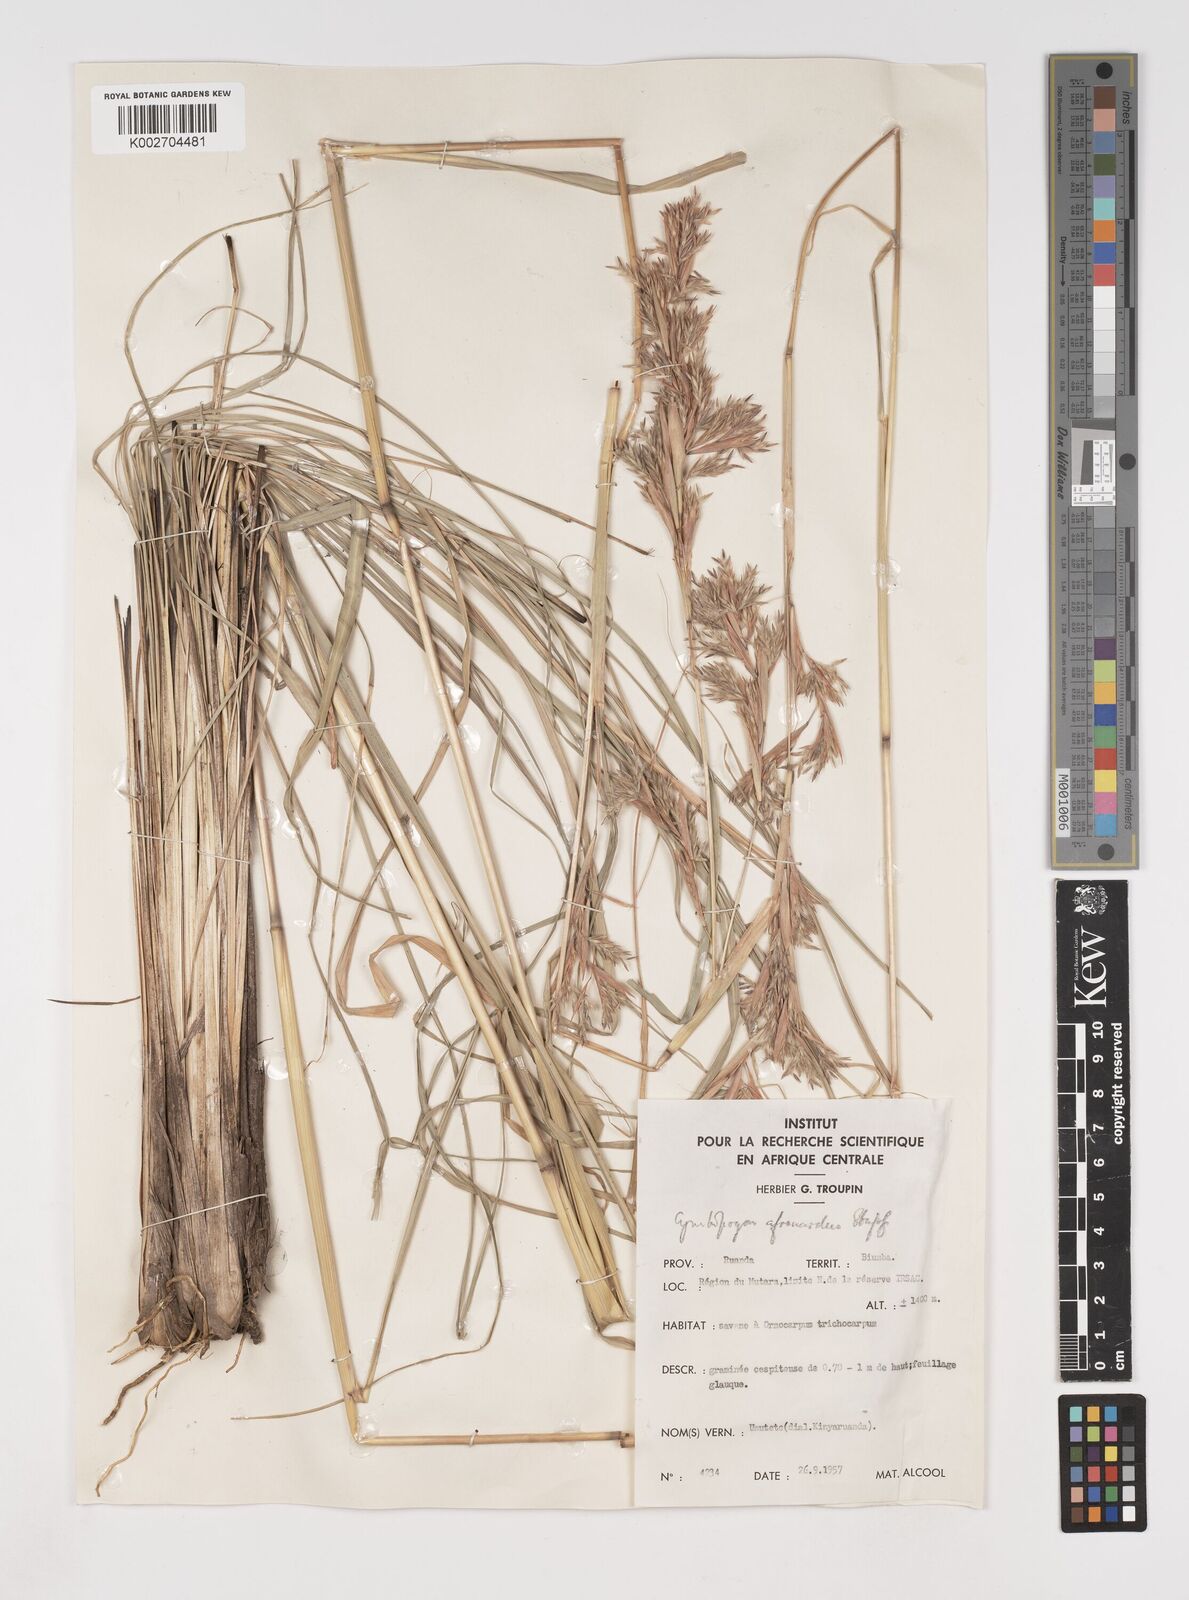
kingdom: Plantae
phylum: Tracheophyta
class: Liliopsida
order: Poales
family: Poaceae
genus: Cymbopogon
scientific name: Cymbopogon nardus
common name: Giant turpentine grass
